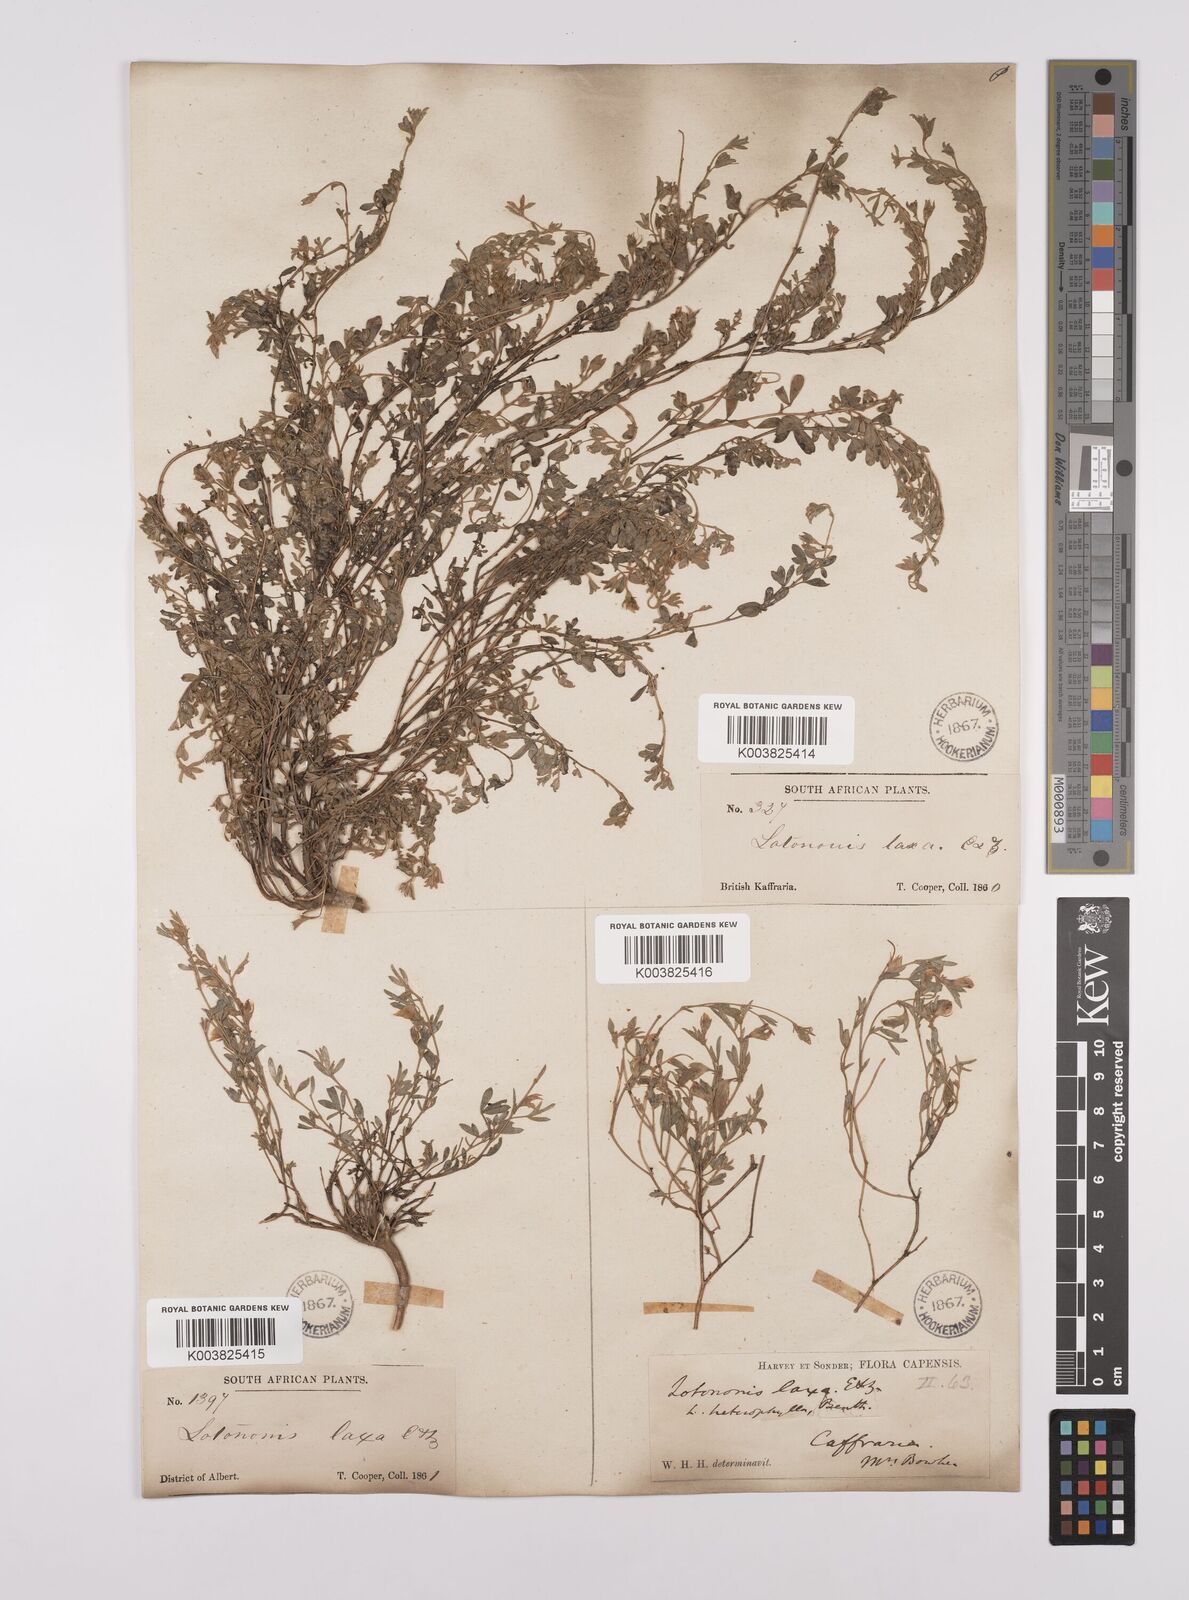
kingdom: Plantae
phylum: Tracheophyta
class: Magnoliopsida
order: Fabales
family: Fabaceae
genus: Lotononis
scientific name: Lotononis laxa
